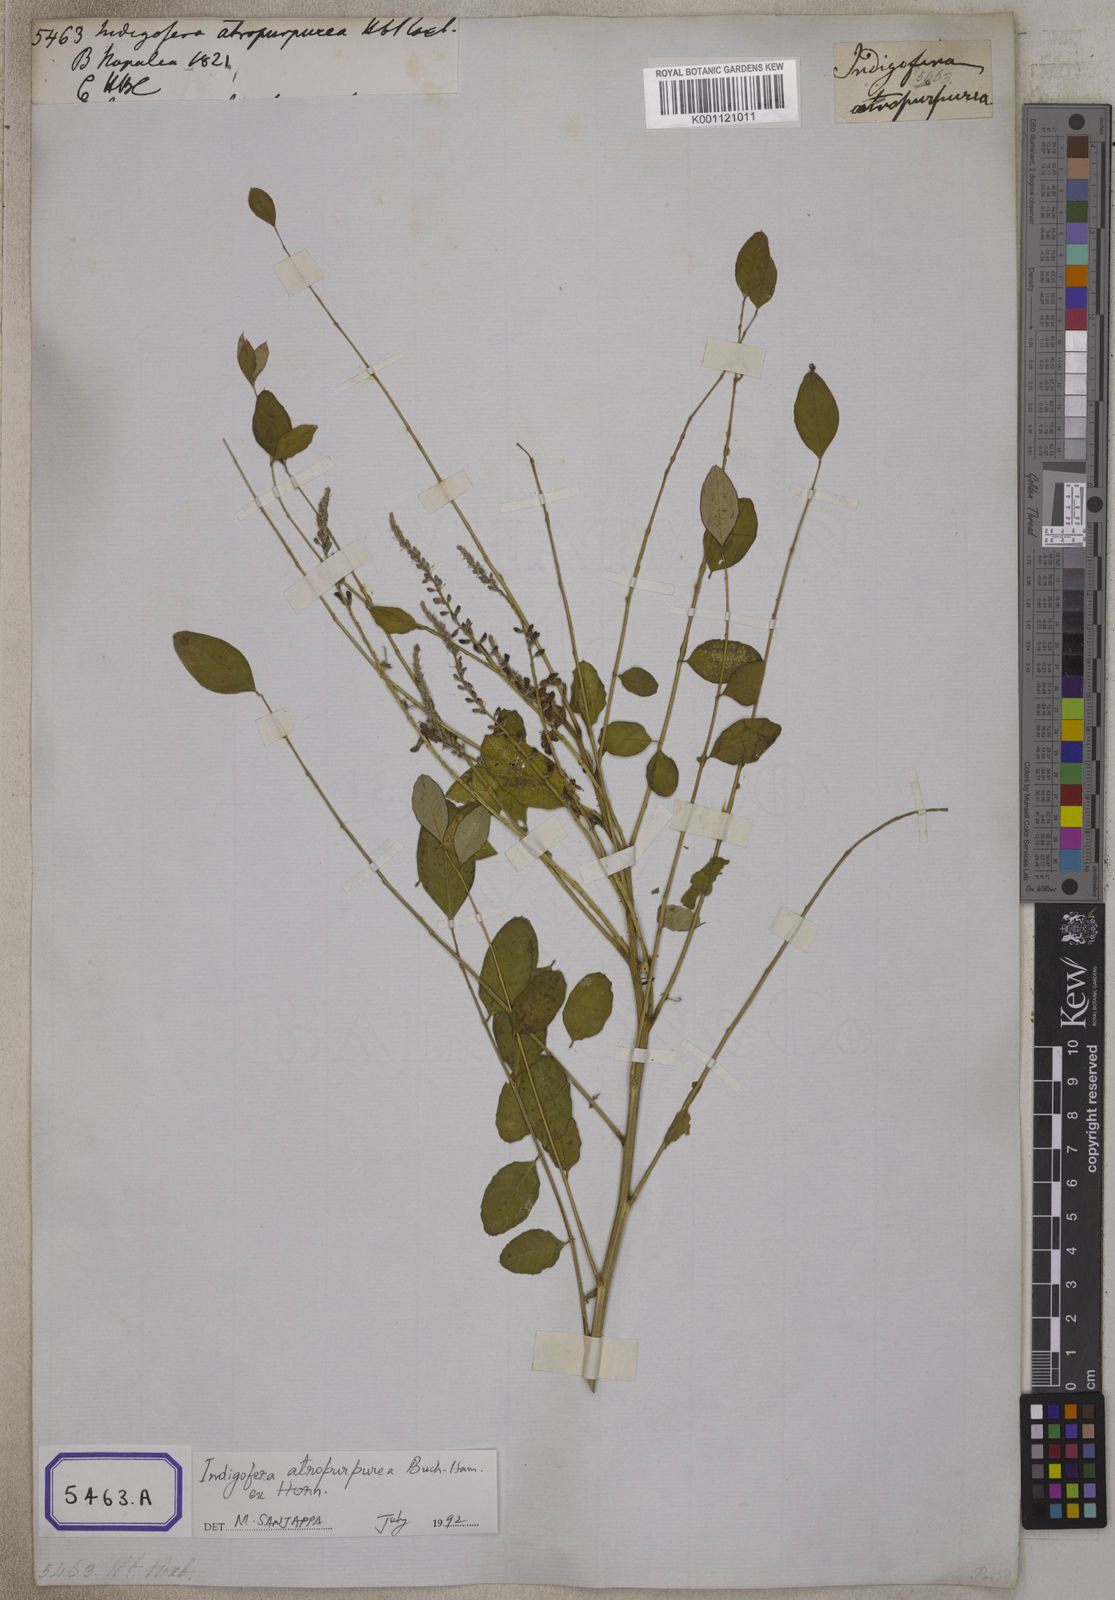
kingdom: Plantae
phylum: Tracheophyta
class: Magnoliopsida
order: Fabales
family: Fabaceae
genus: Indigofera
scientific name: Indigofera
